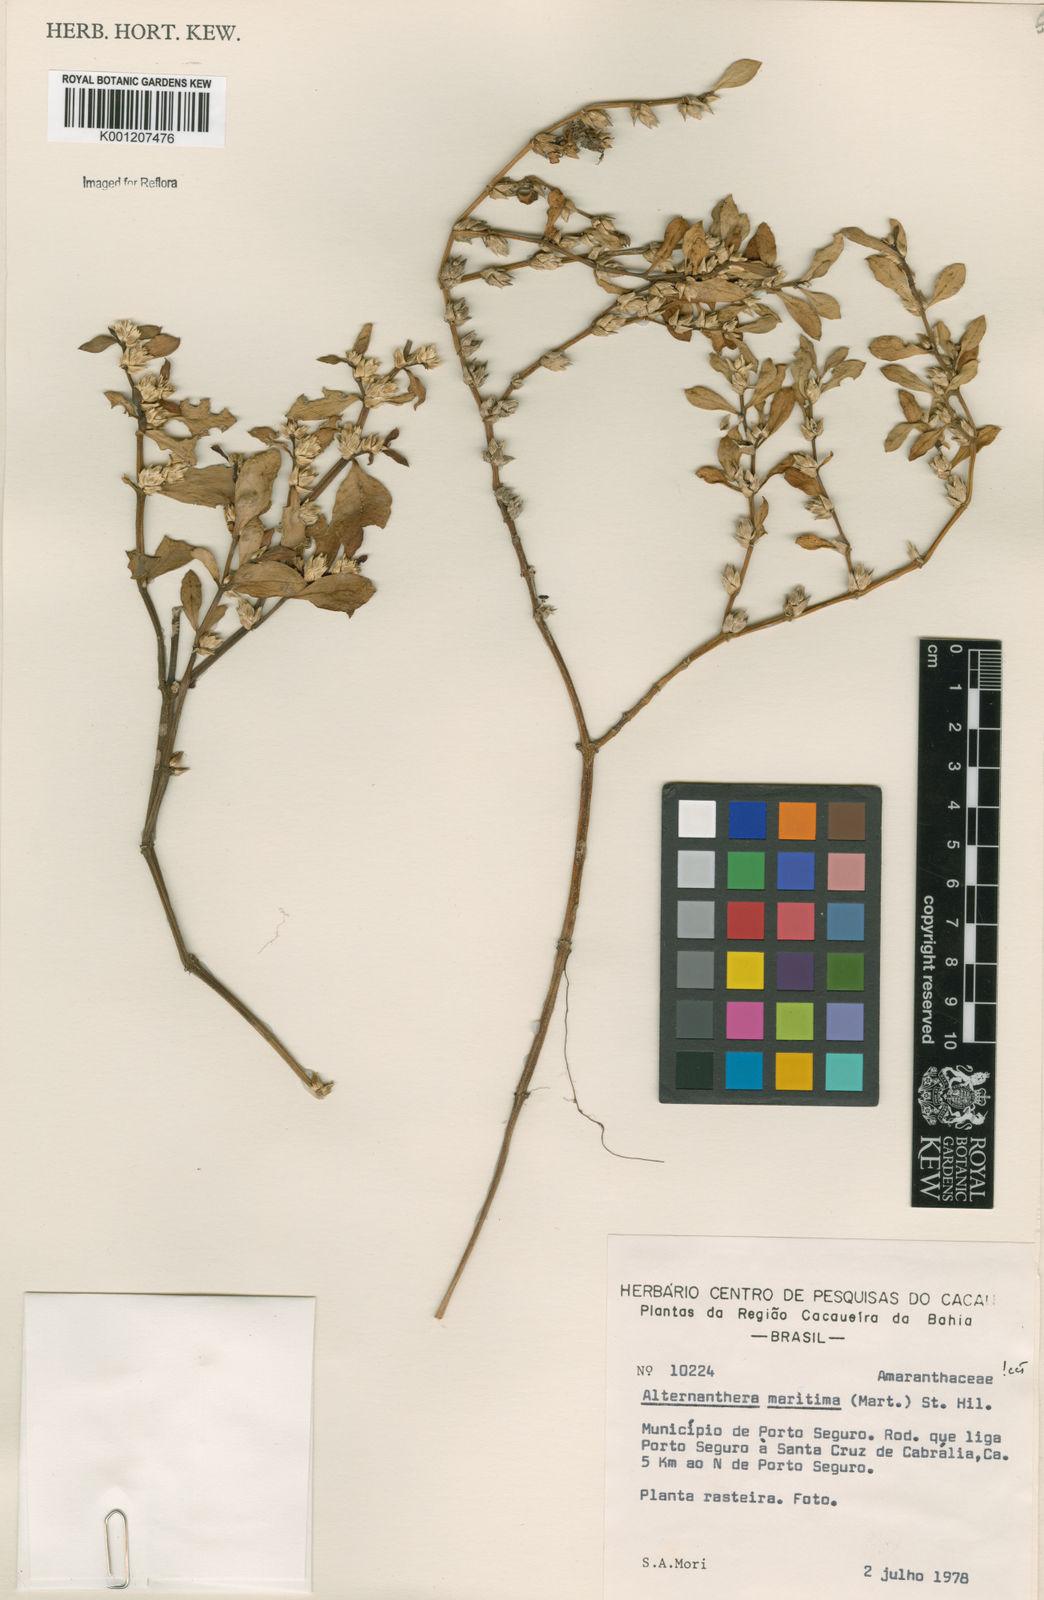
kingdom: Plantae
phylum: Tracheophyta
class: Magnoliopsida
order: Caryophyllales
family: Amaranthaceae
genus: Alternanthera
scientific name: Alternanthera littoralis
